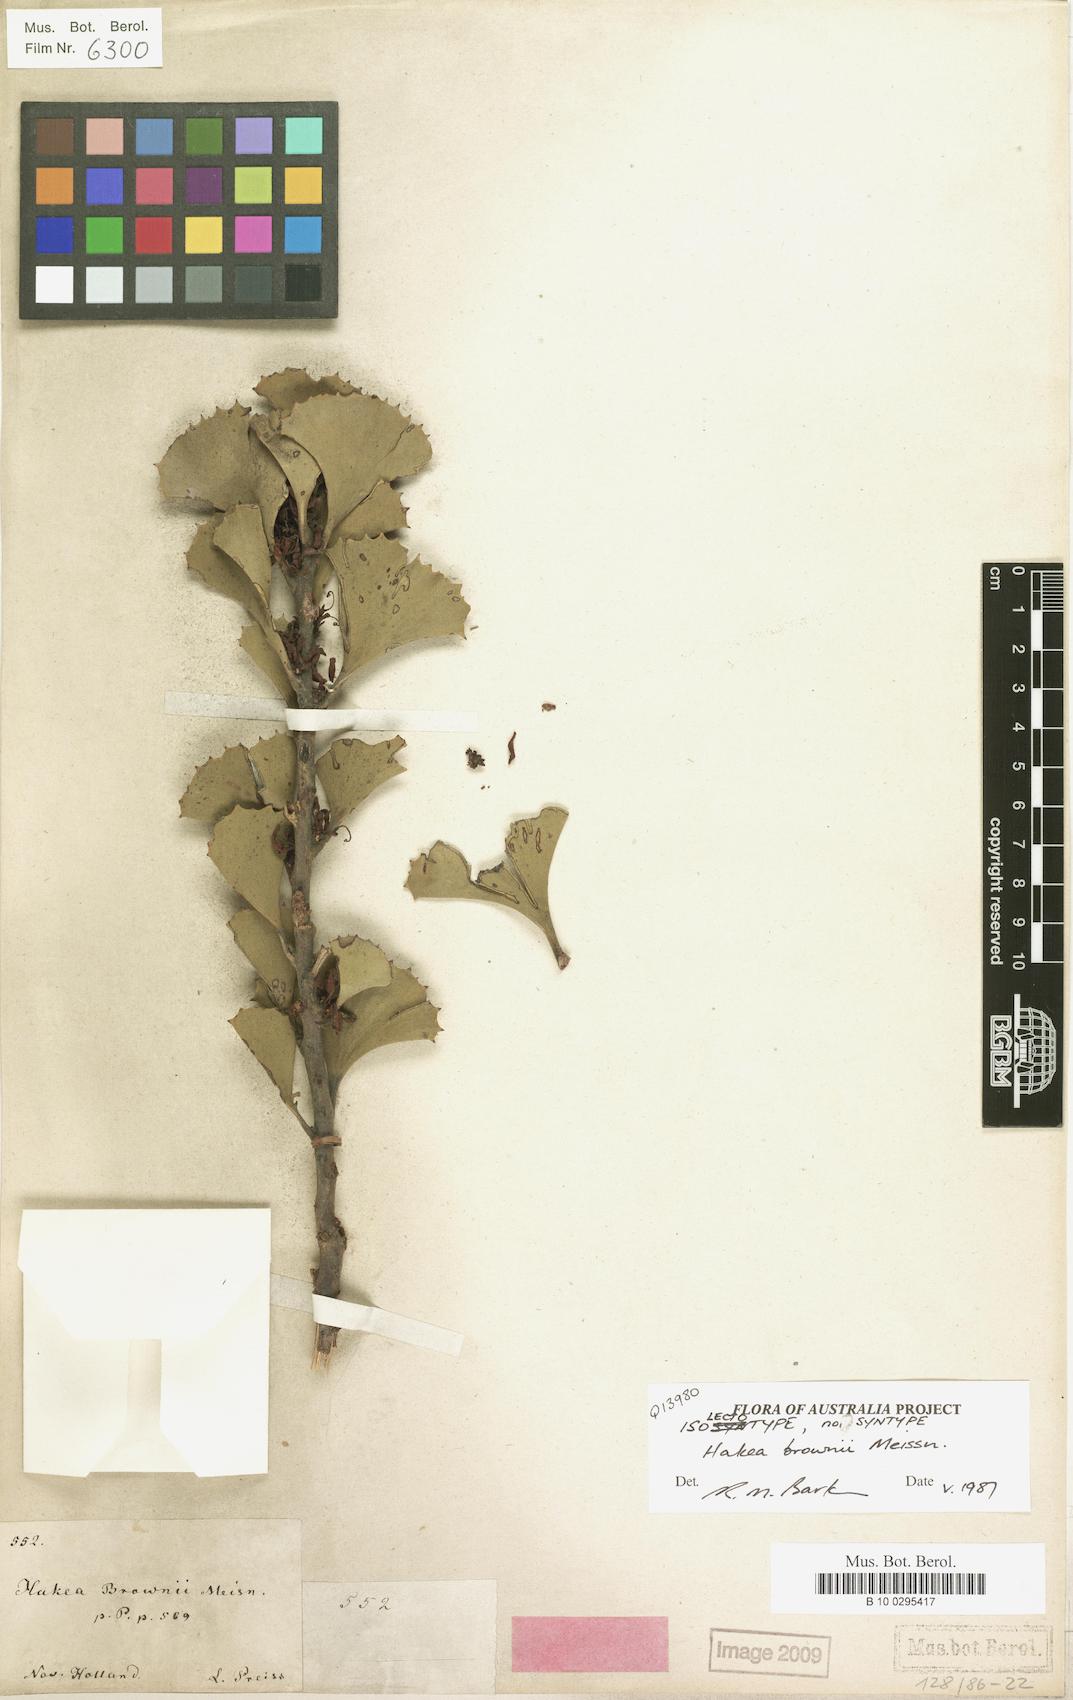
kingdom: Plantae
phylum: Tracheophyta
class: Magnoliopsida
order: Proteales
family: Proteaceae
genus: Hakea
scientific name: Hakea brownii
